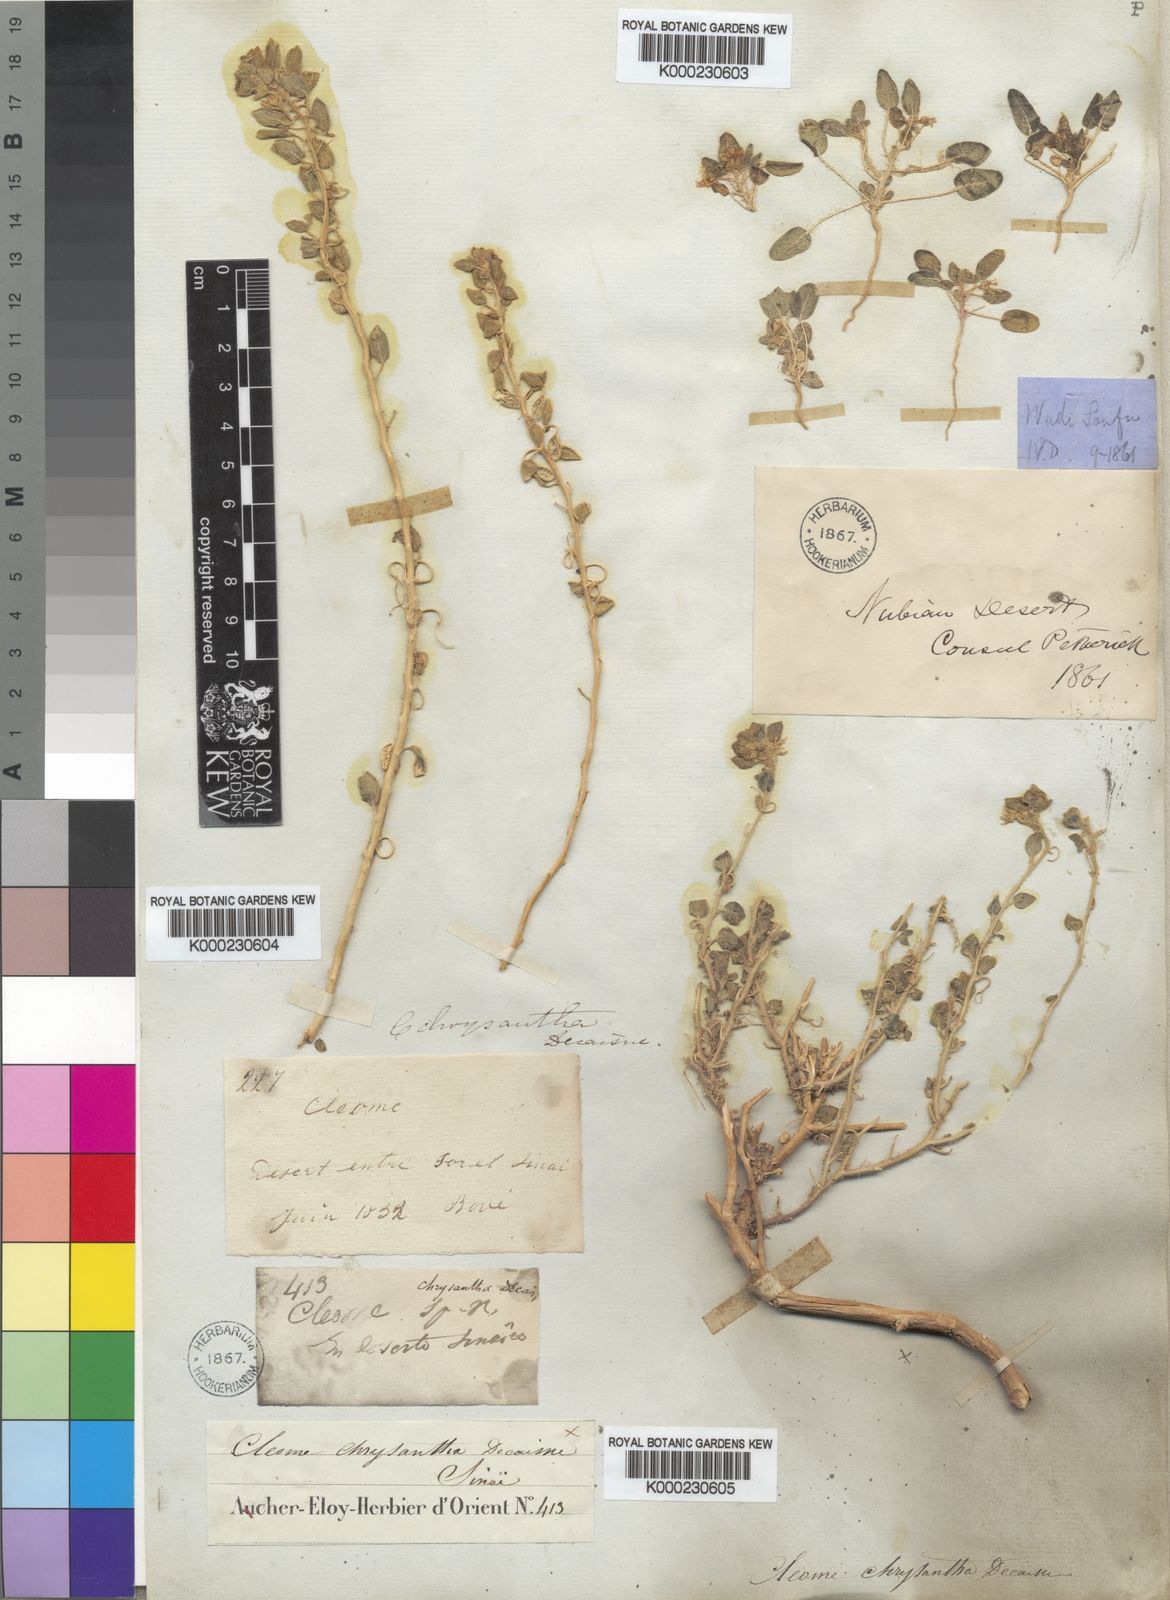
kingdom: Plantae
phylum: Tracheophyta
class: Magnoliopsida
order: Brassicales
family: Cleomaceae
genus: Thulinella
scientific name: Thulinella chrysantha
